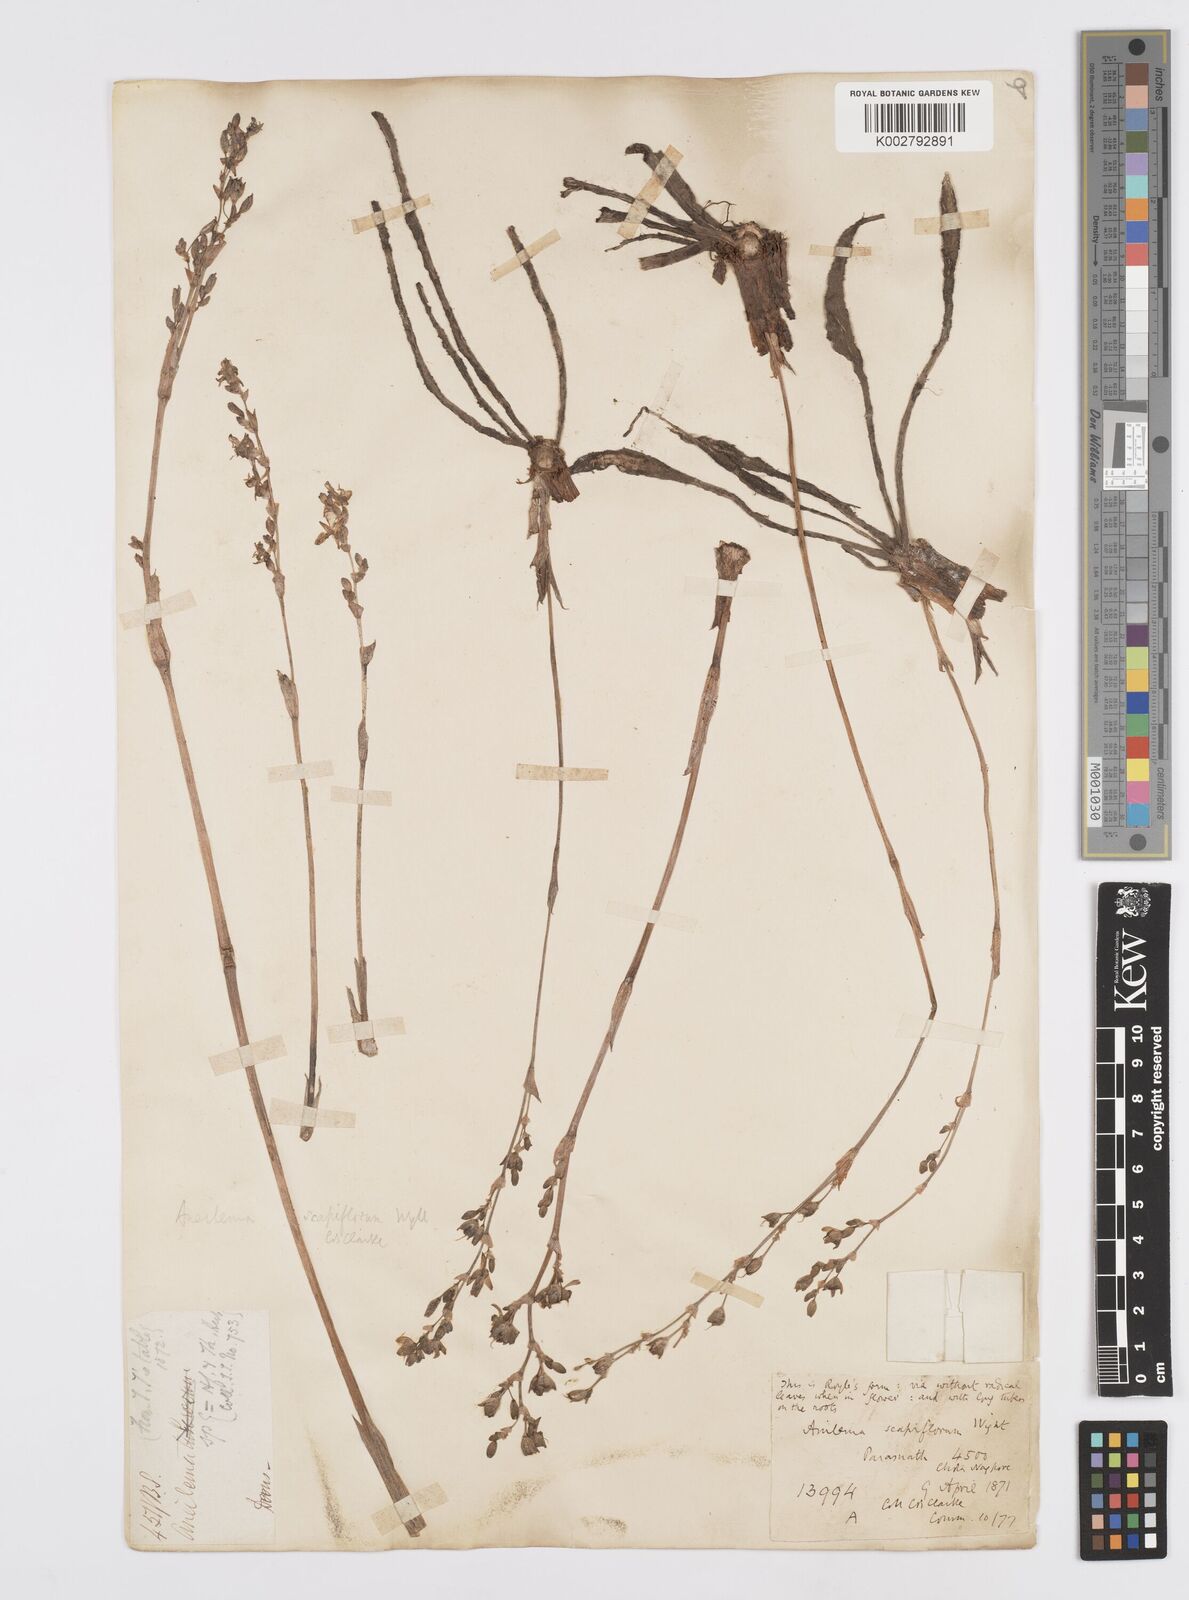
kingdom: Plantae
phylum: Tracheophyta
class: Liliopsida
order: Commelinales
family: Commelinaceae
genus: Murdannia
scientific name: Murdannia
